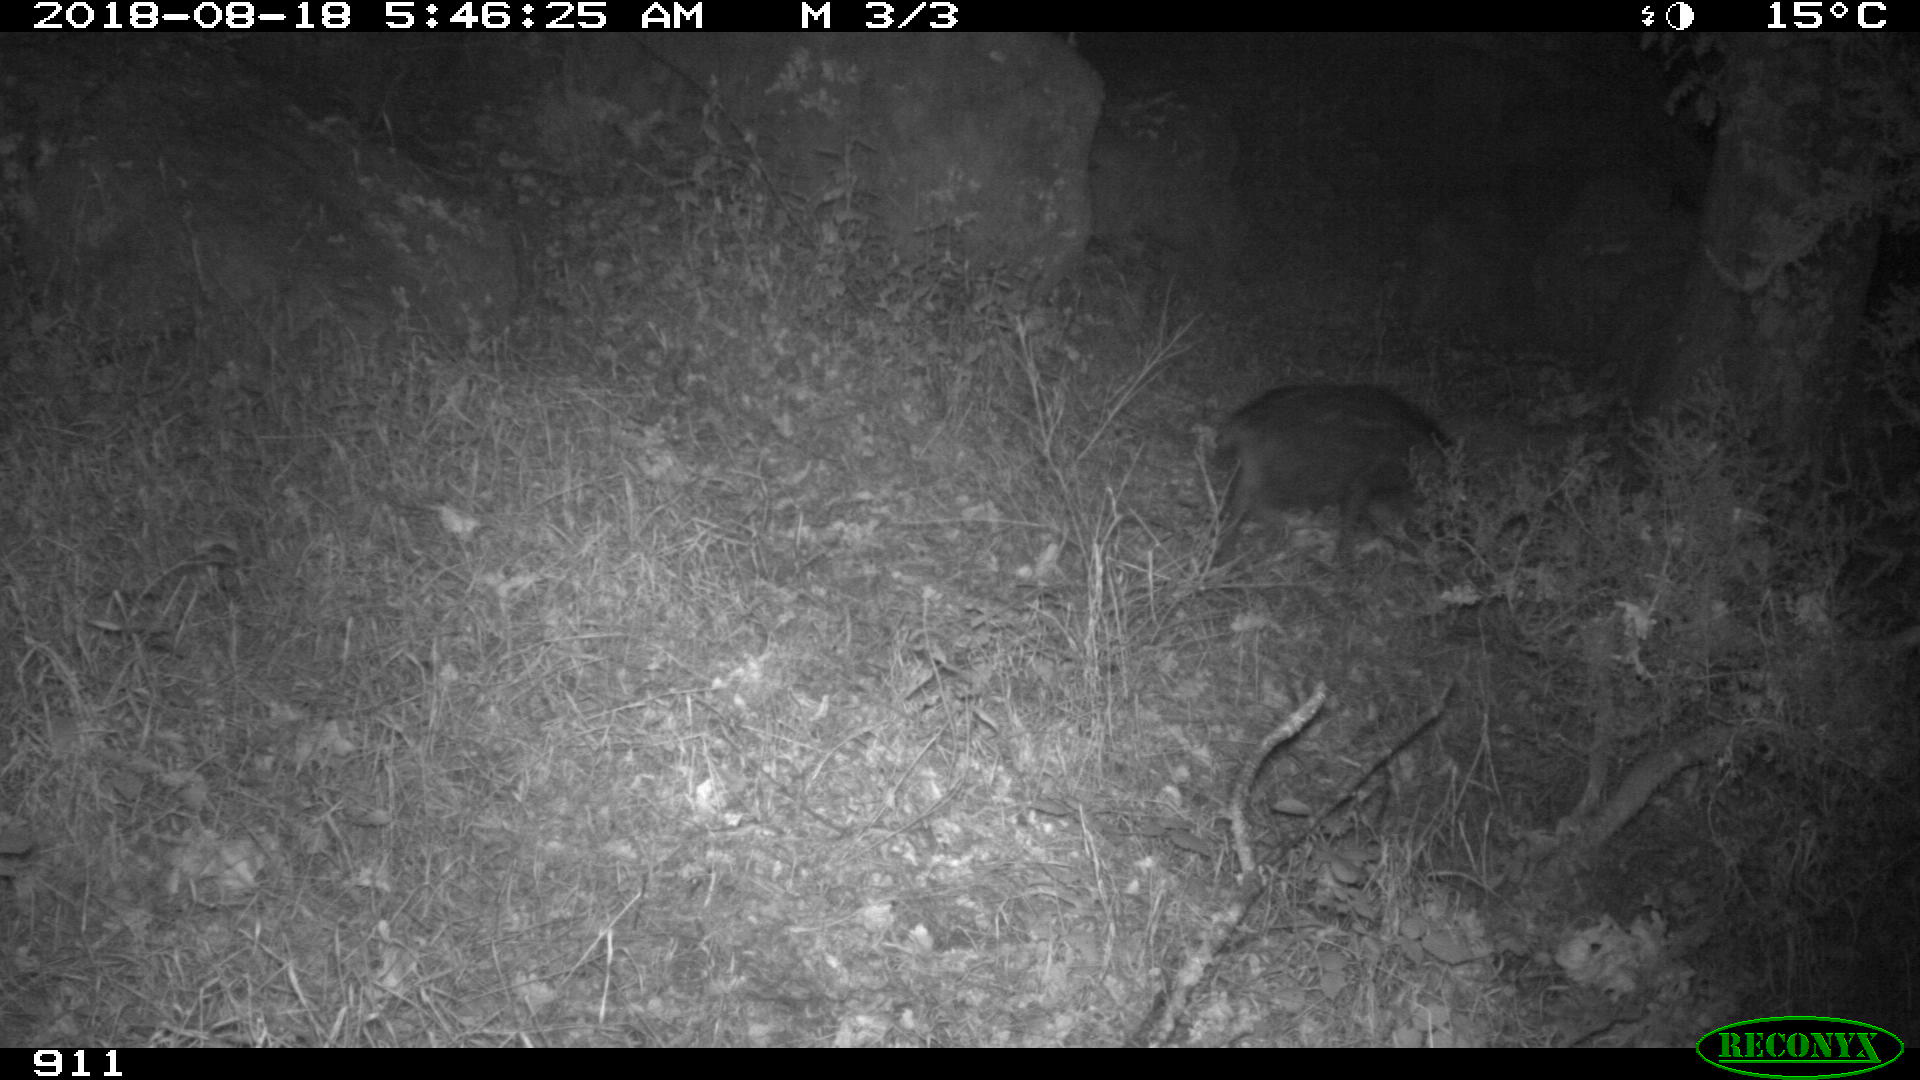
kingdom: Animalia
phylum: Chordata
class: Mammalia
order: Artiodactyla
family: Suidae
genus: Sus
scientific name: Sus scrofa
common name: Wild boar
